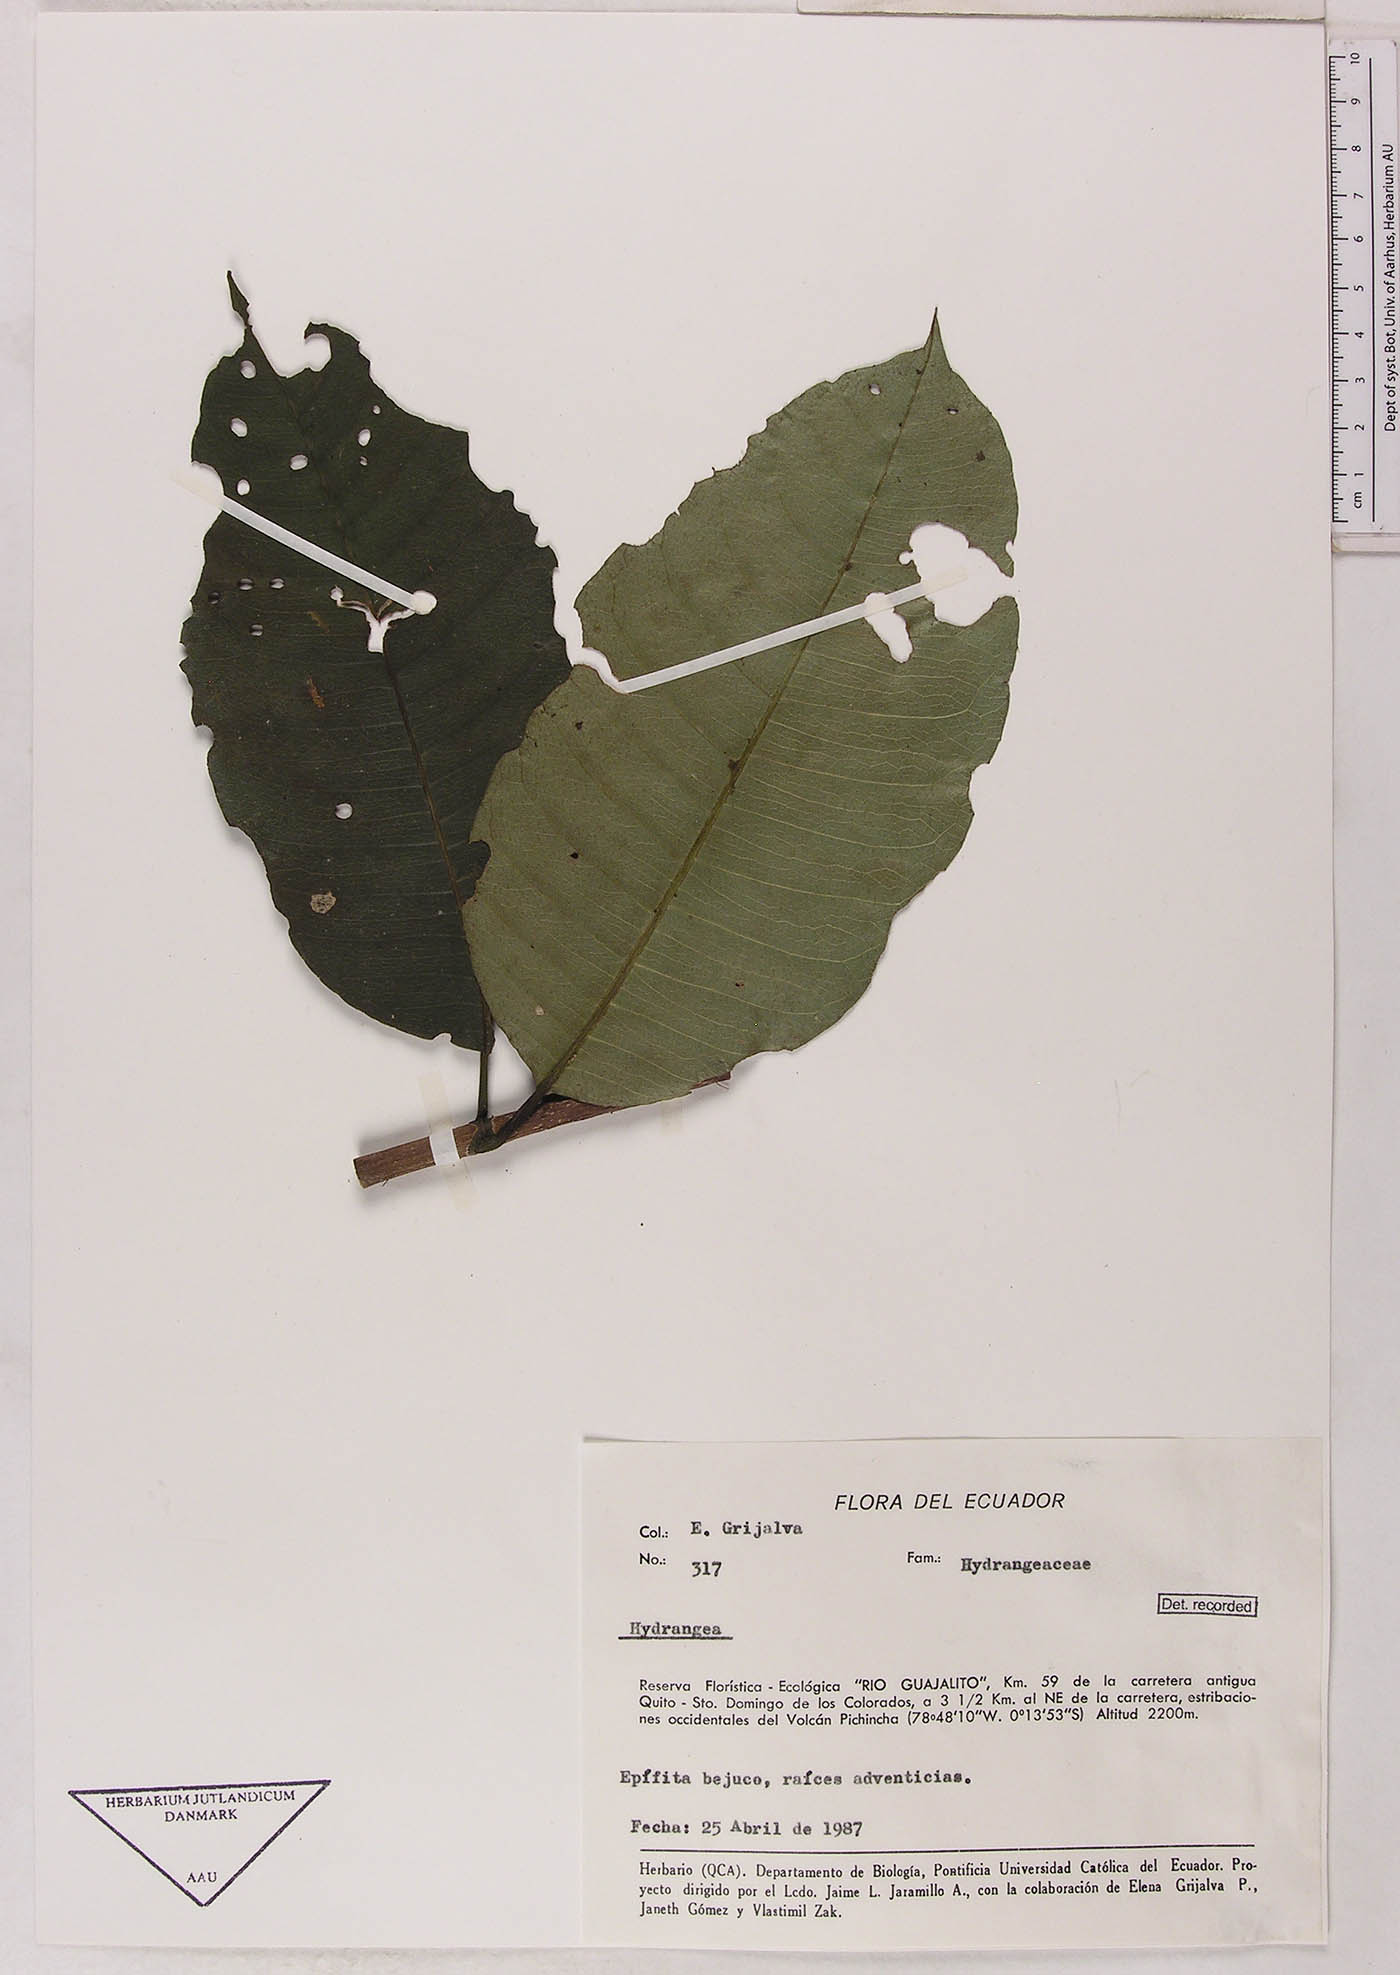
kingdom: Plantae
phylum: Tracheophyta
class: Magnoliopsida
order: Cornales
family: Hydrangeaceae
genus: Hydrangea
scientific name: Hydrangea
